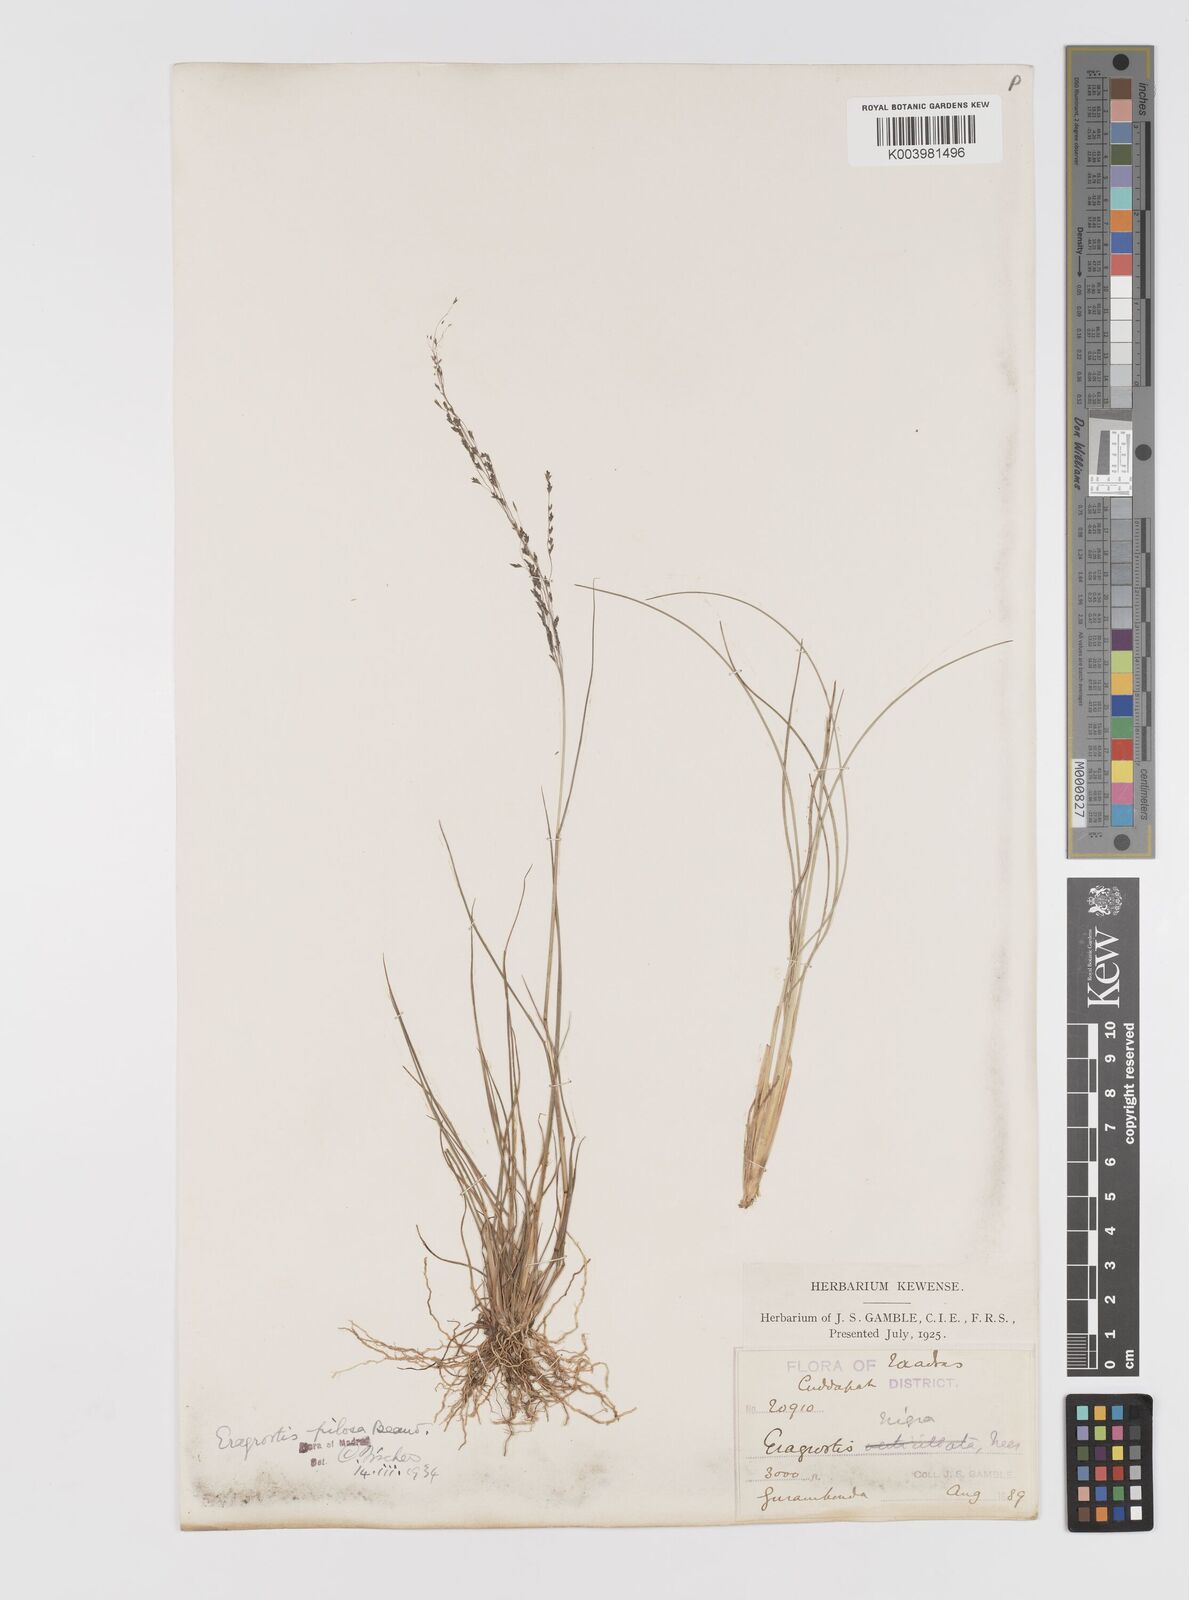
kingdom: Plantae
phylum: Tracheophyta
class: Liliopsida
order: Poales
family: Poaceae
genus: Eragrostis
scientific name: Eragrostis pilosa
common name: Indian lovegrass
